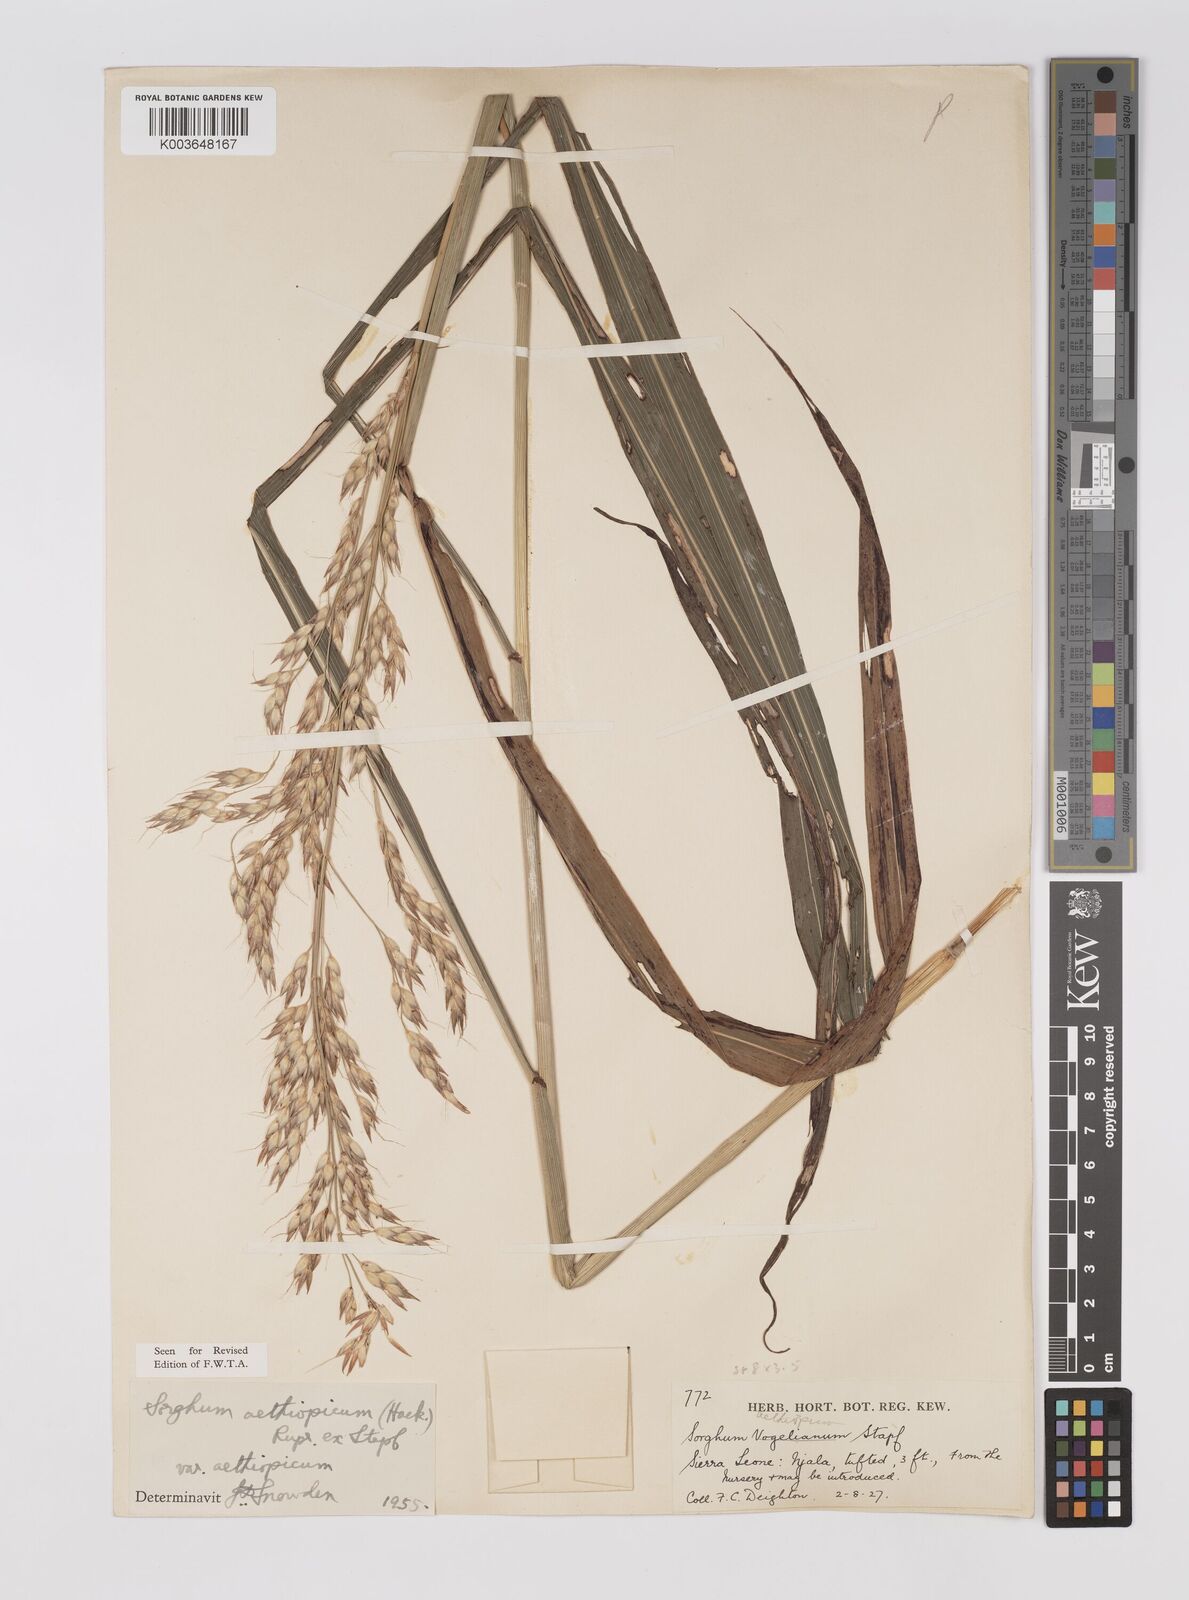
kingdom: Plantae
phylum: Tracheophyta
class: Liliopsida
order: Poales
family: Poaceae
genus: Sorghum
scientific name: Sorghum arundinaceum
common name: Sorghum
